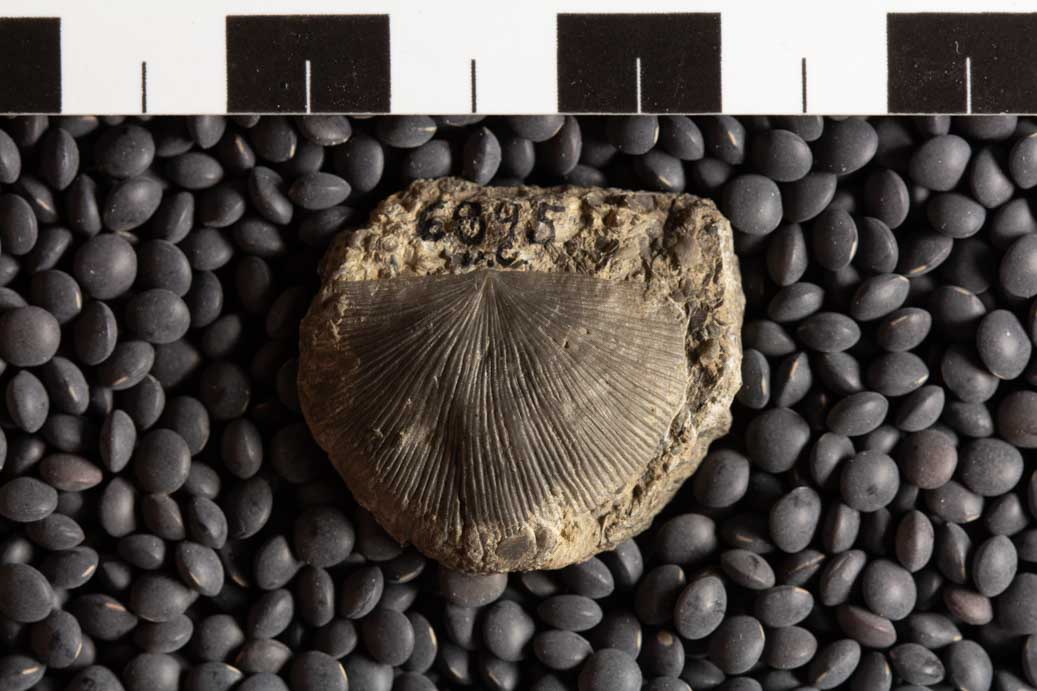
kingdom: Animalia
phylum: Brachiopoda
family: Strophomenidae
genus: Bellimurina
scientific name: Bellimurina Leptaena charlottae
